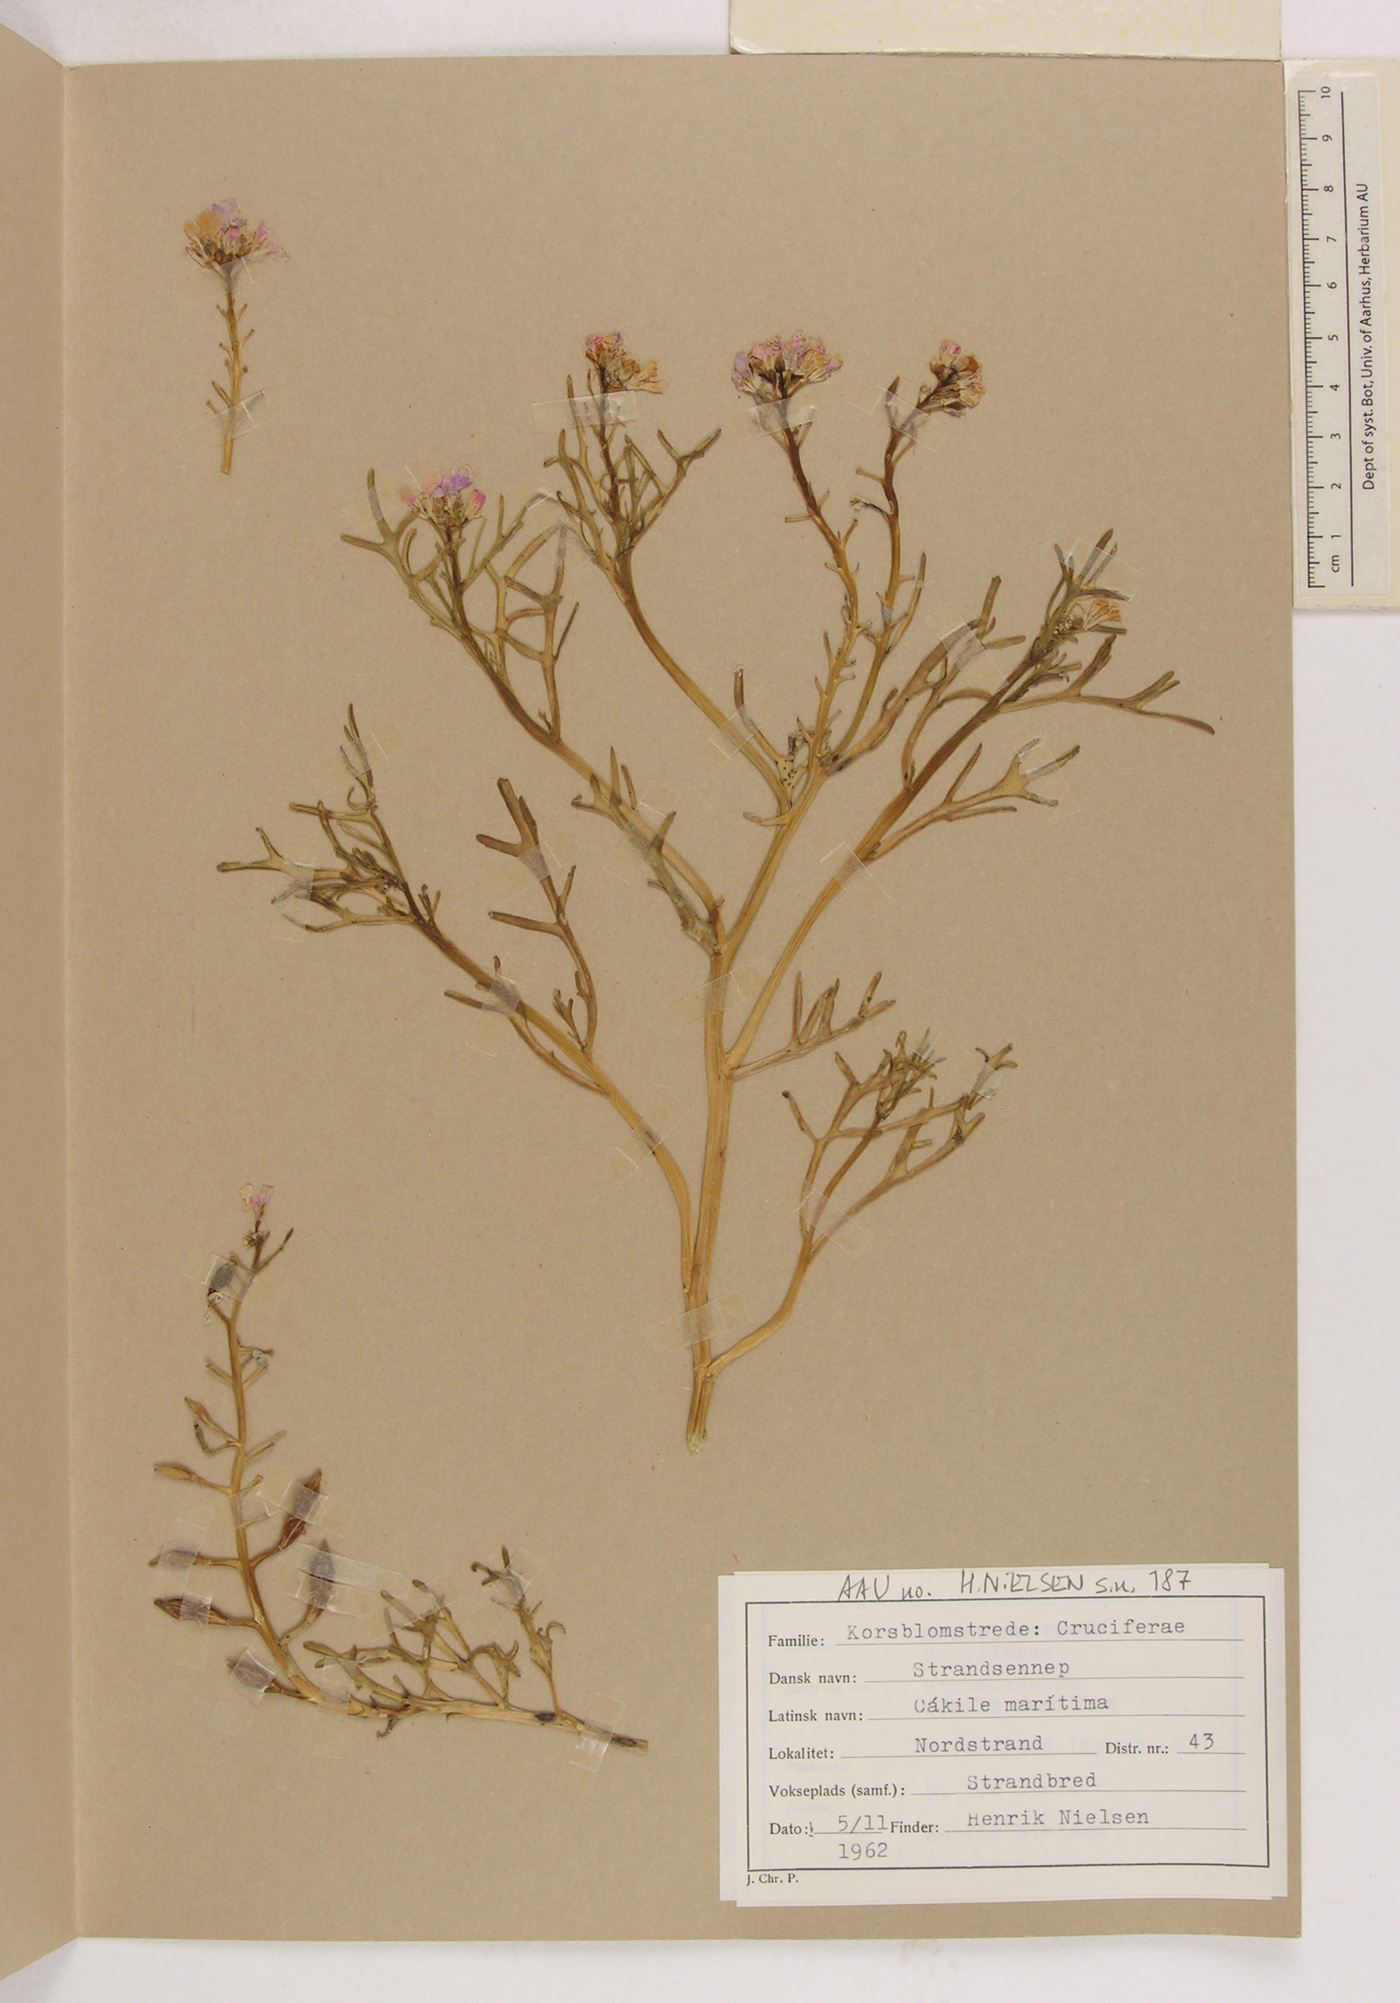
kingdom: Plantae
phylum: Tracheophyta
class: Magnoliopsida
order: Brassicales
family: Brassicaceae
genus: Cakile
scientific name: Cakile maritima
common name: Sea rocket
